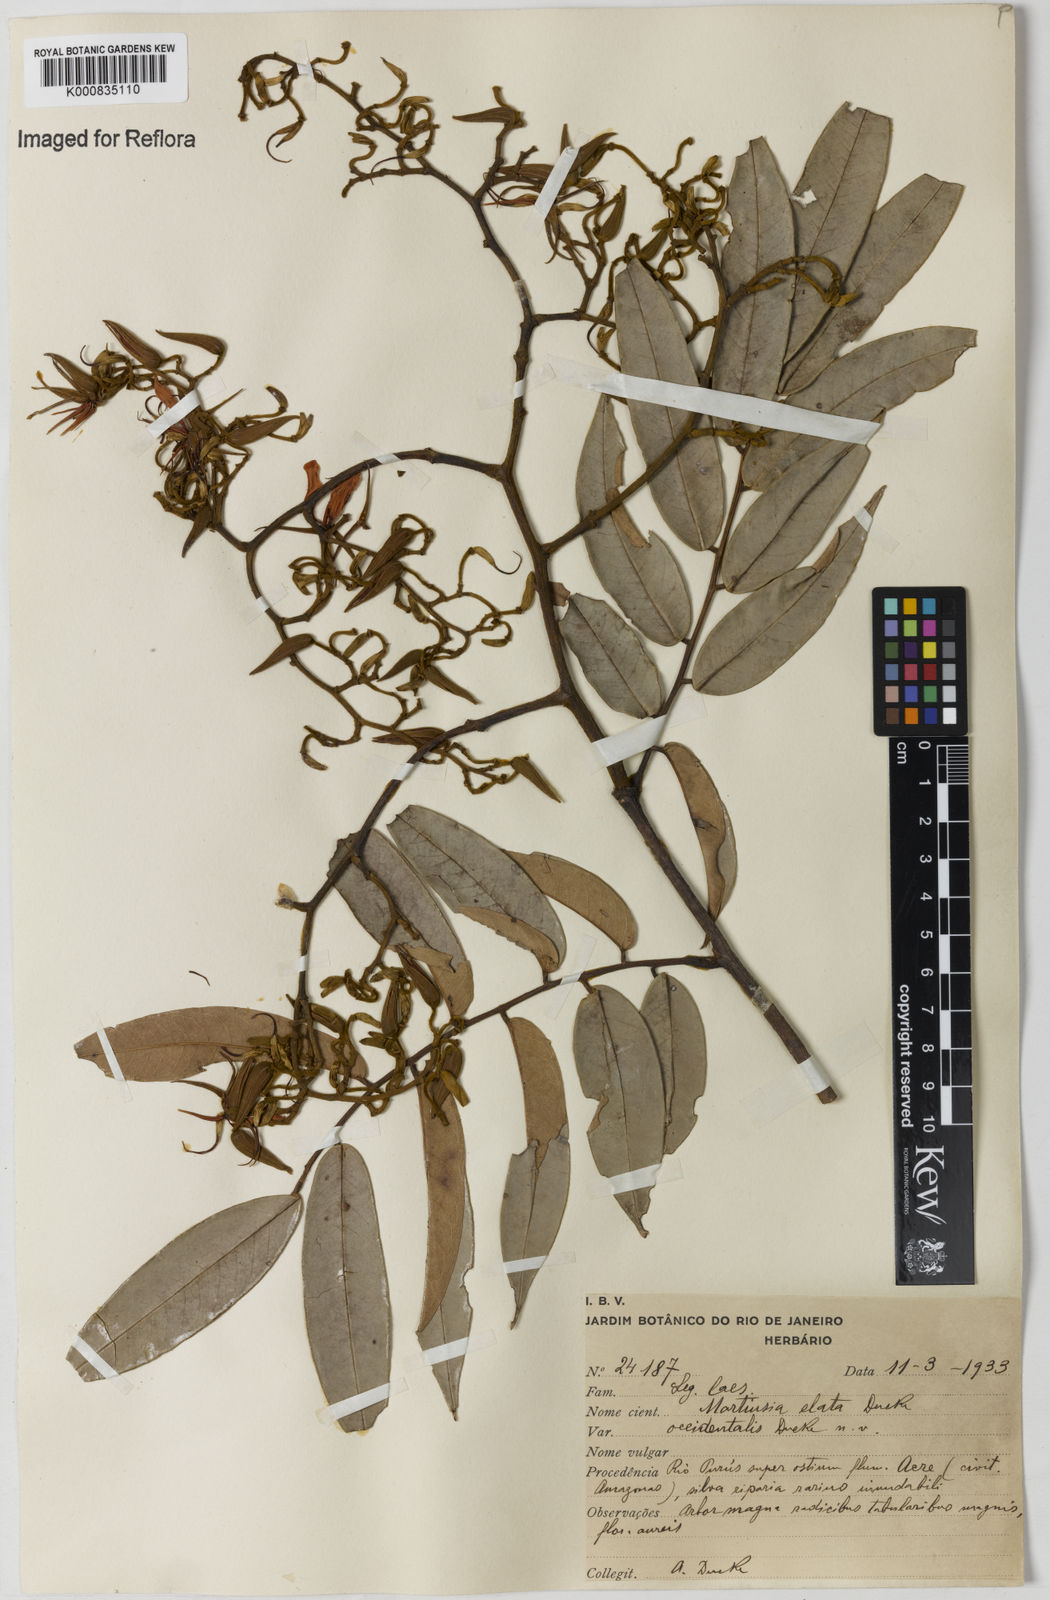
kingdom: Plantae
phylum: Tracheophyta
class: Magnoliopsida
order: Fabales
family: Fabaceae
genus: Martiodendron
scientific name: Martiodendron elatum
